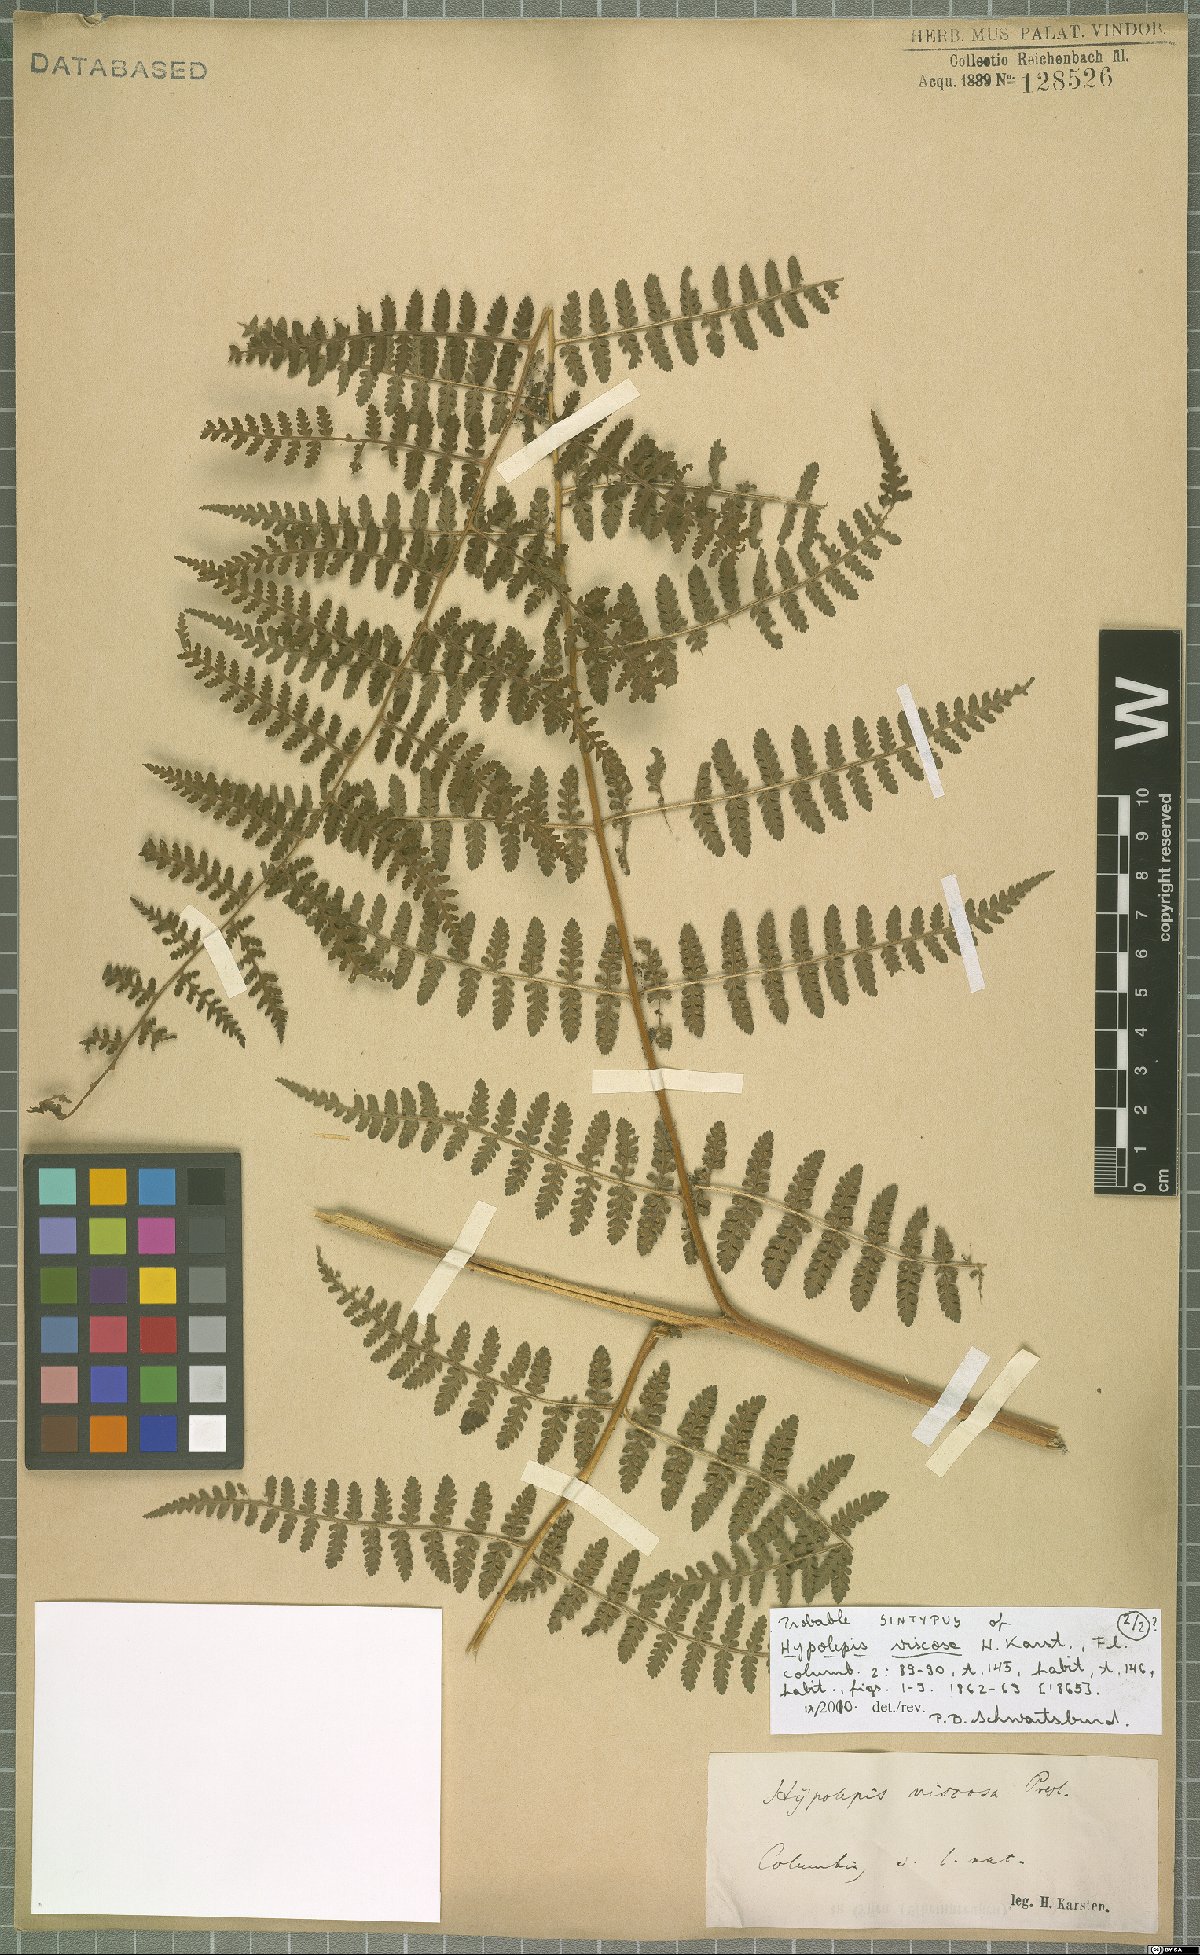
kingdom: Plantae
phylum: Tracheophyta
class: Polypodiopsida
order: Polypodiales
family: Dennstaedtiaceae
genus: Hypolepis
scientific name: Hypolepis viscosa
